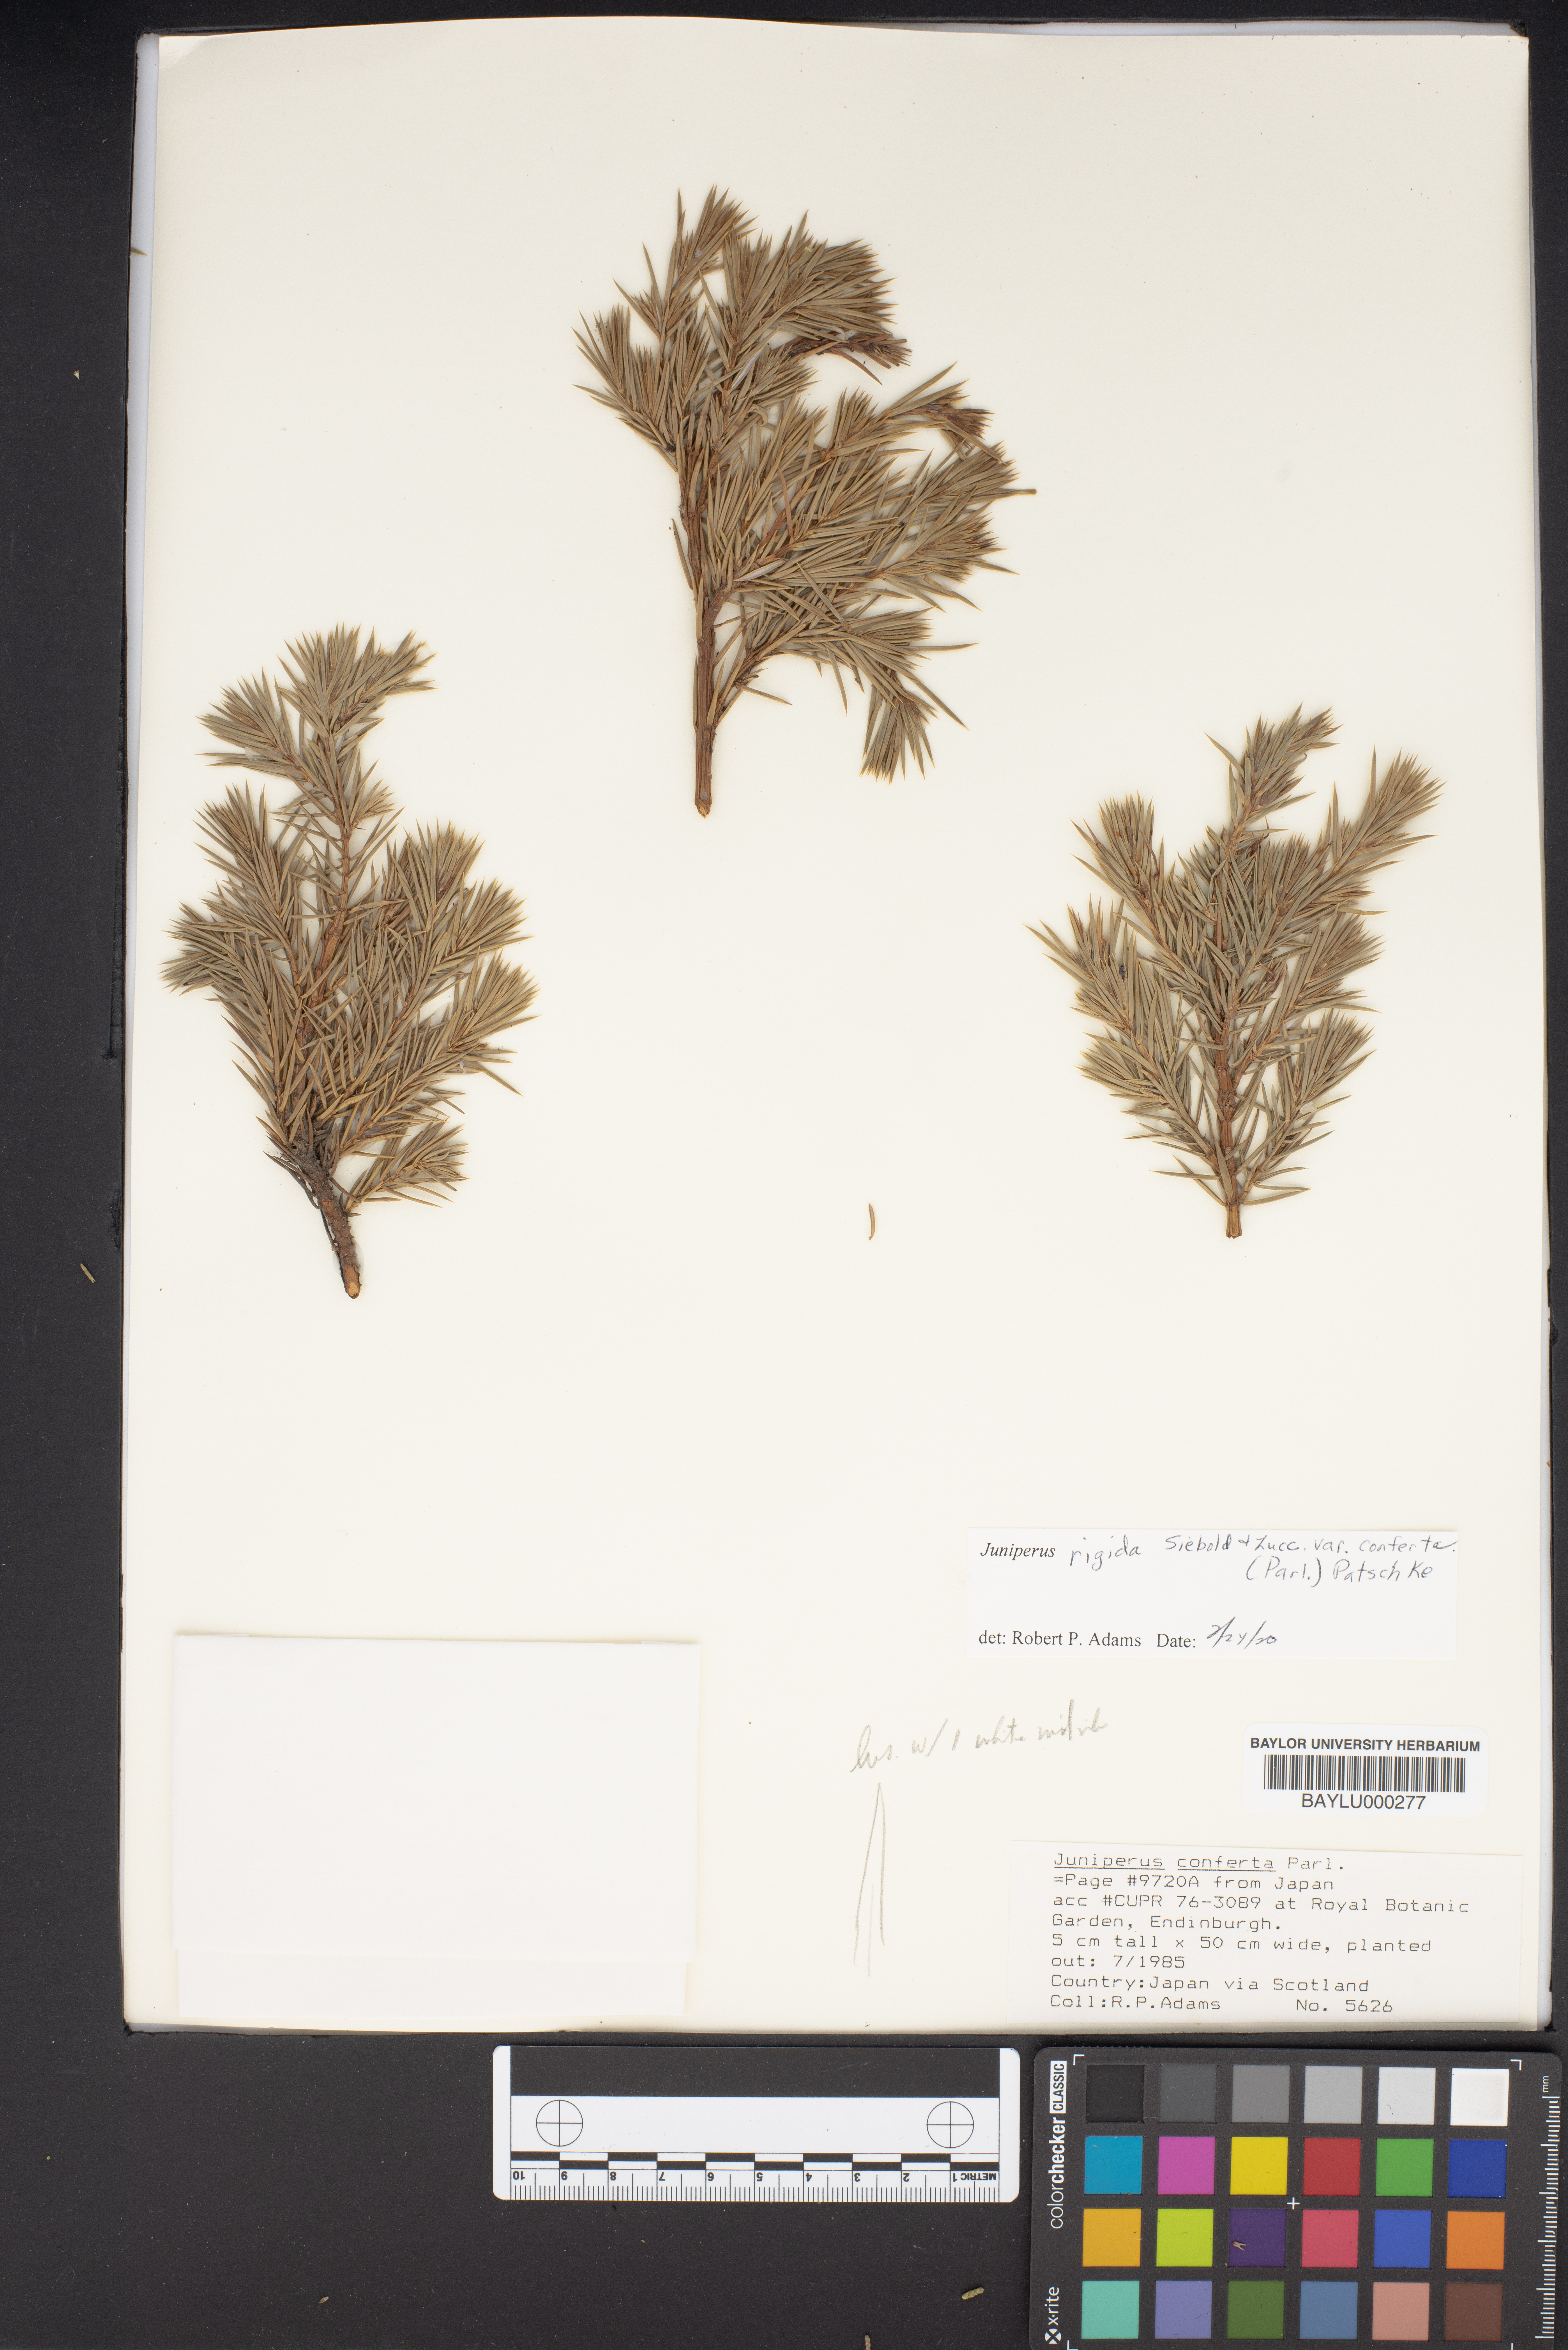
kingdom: Plantae
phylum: Tracheophyta
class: Pinopsida
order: Pinales
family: Cupressaceae
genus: Juniperus
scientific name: Juniperus rigida
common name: Needle juniper
